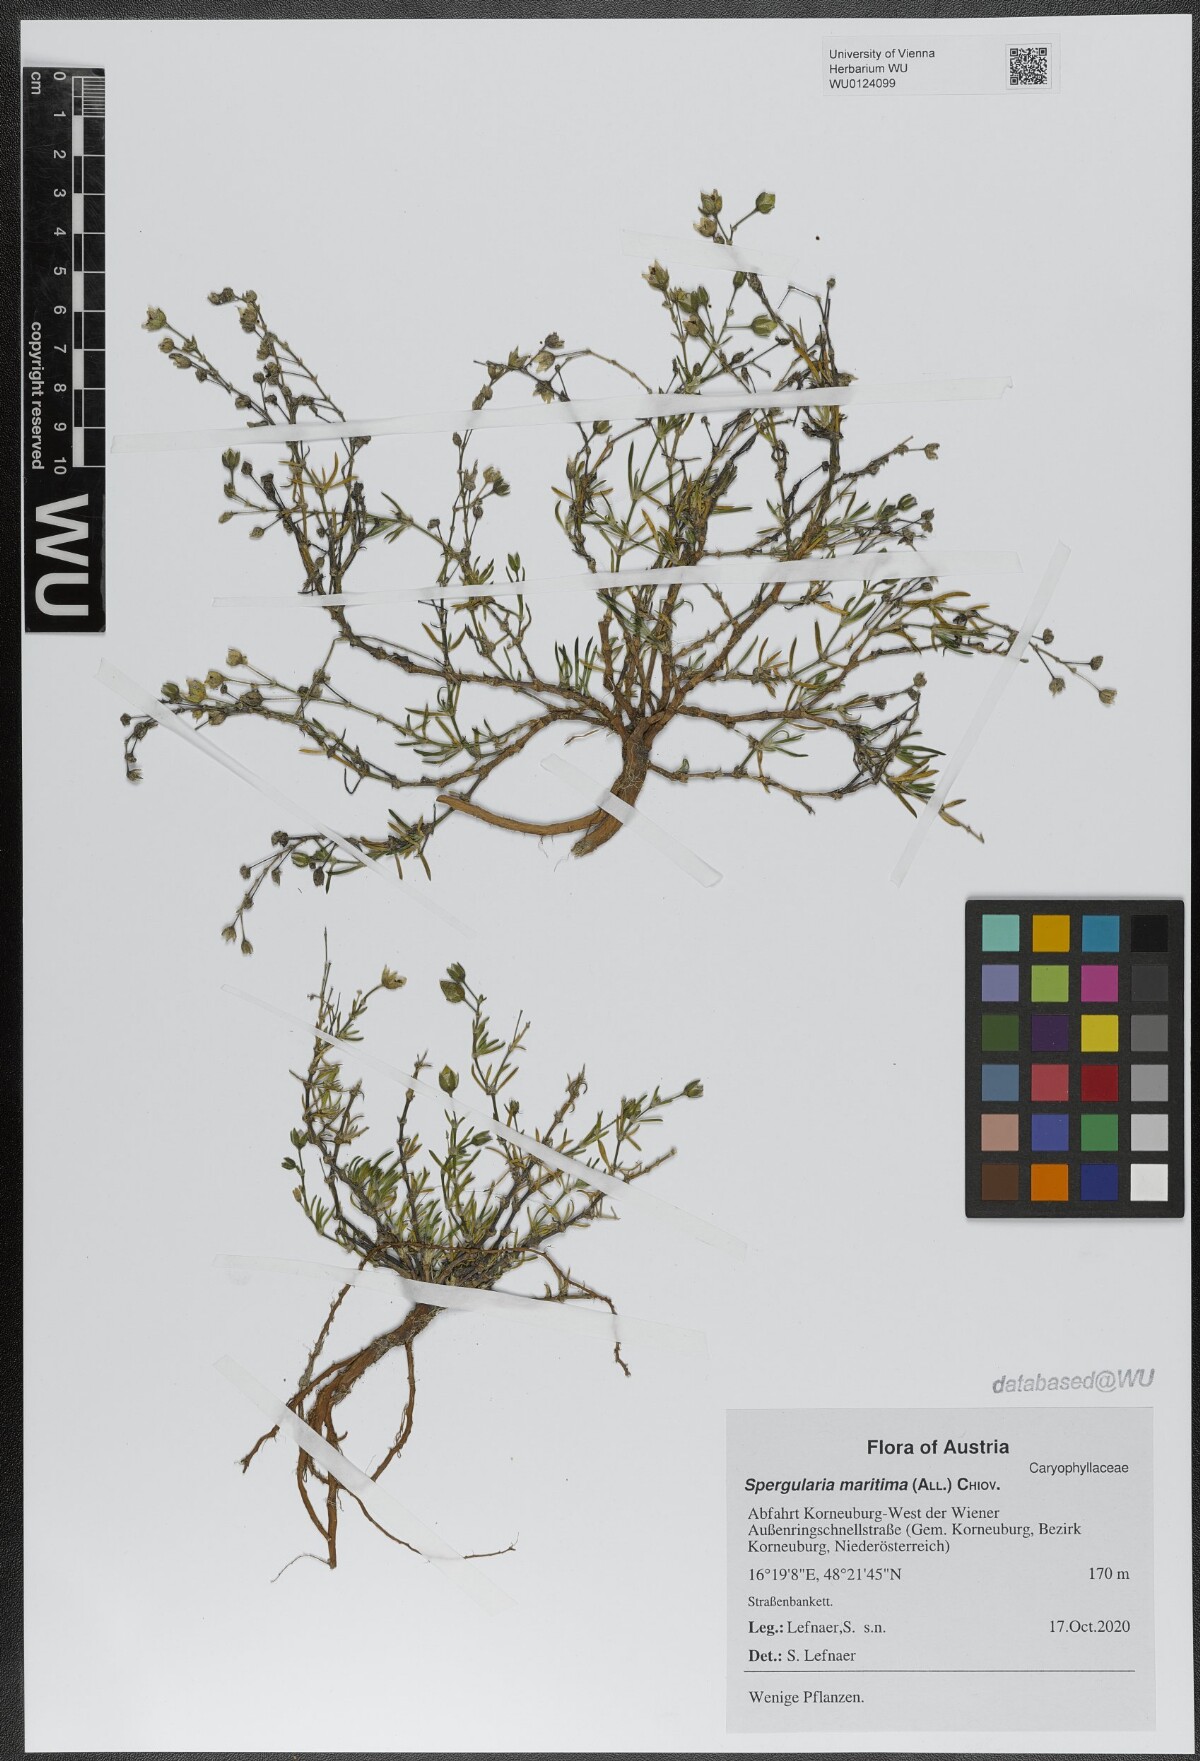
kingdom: Plantae
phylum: Tracheophyta
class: Magnoliopsida
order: Caryophyllales
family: Caryophyllaceae
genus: Spergularia
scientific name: Spergularia media
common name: Greater sea-spurrey
